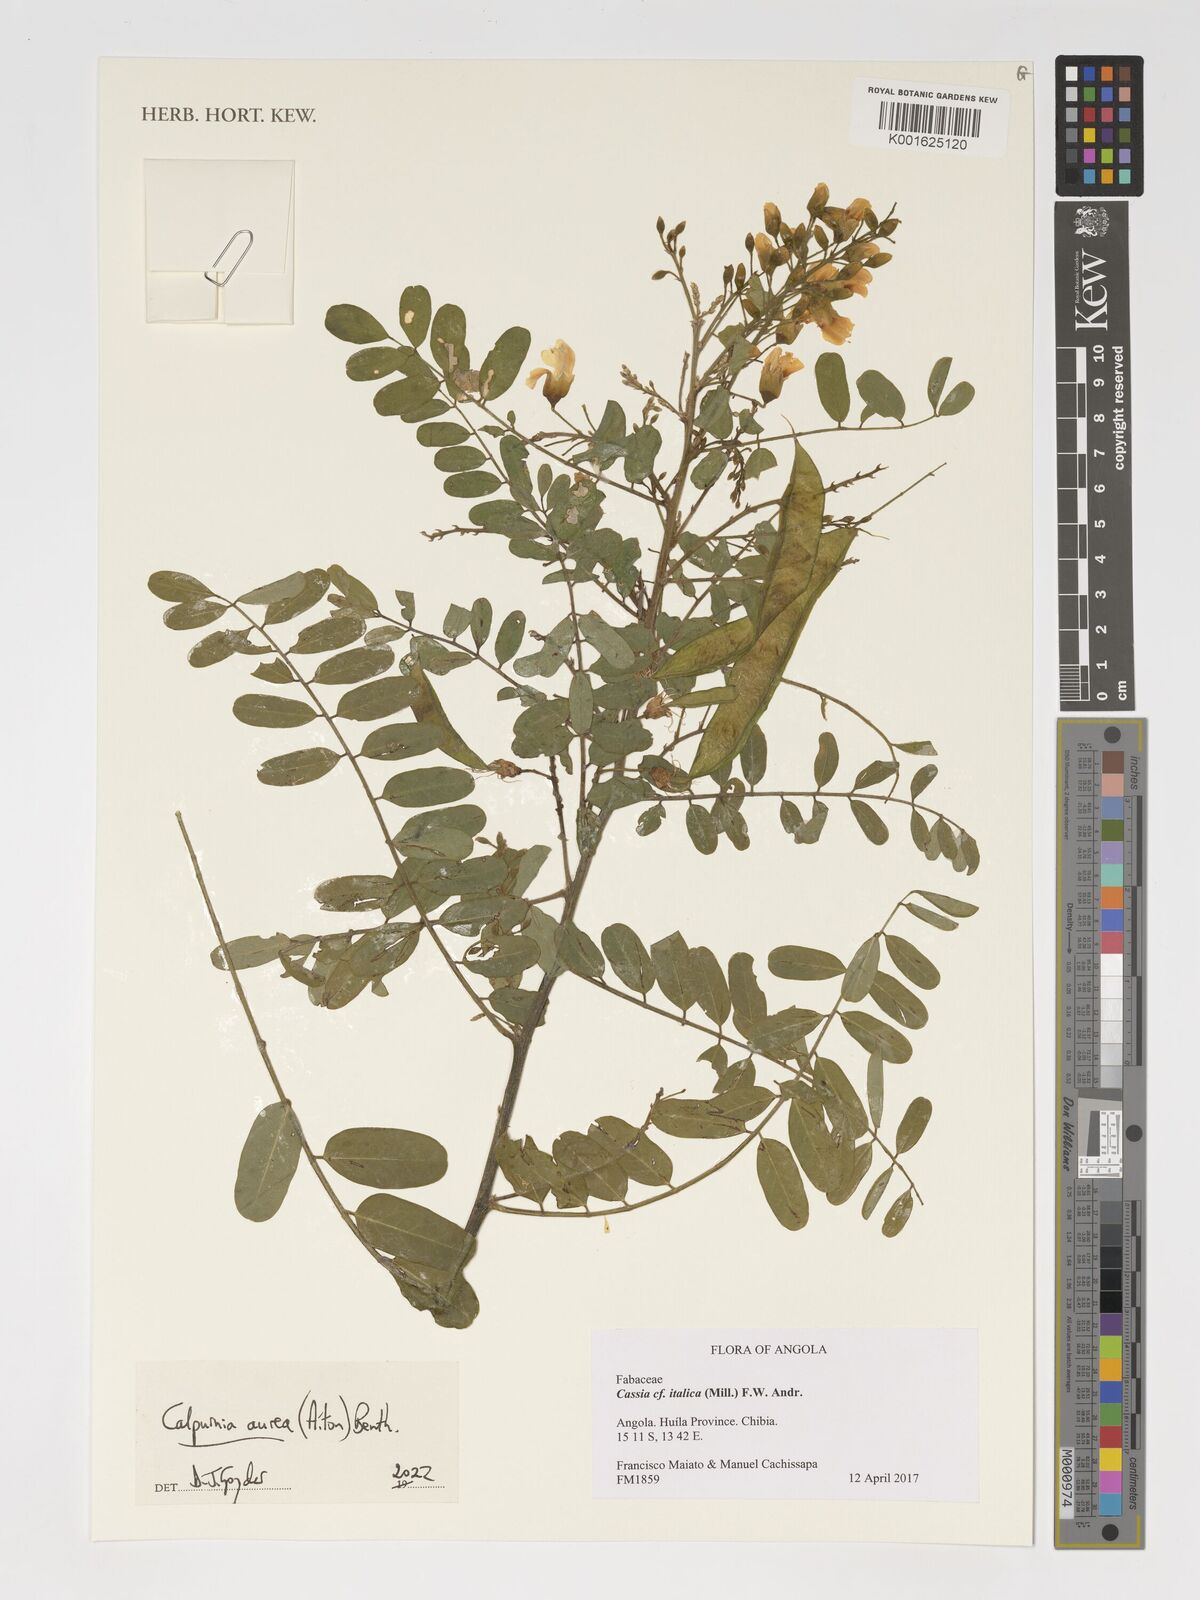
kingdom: Plantae
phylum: Tracheophyta
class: Magnoliopsida
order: Fabales
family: Fabaceae
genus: Calpurnia
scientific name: Calpurnia aurea
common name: Wild laburnum
